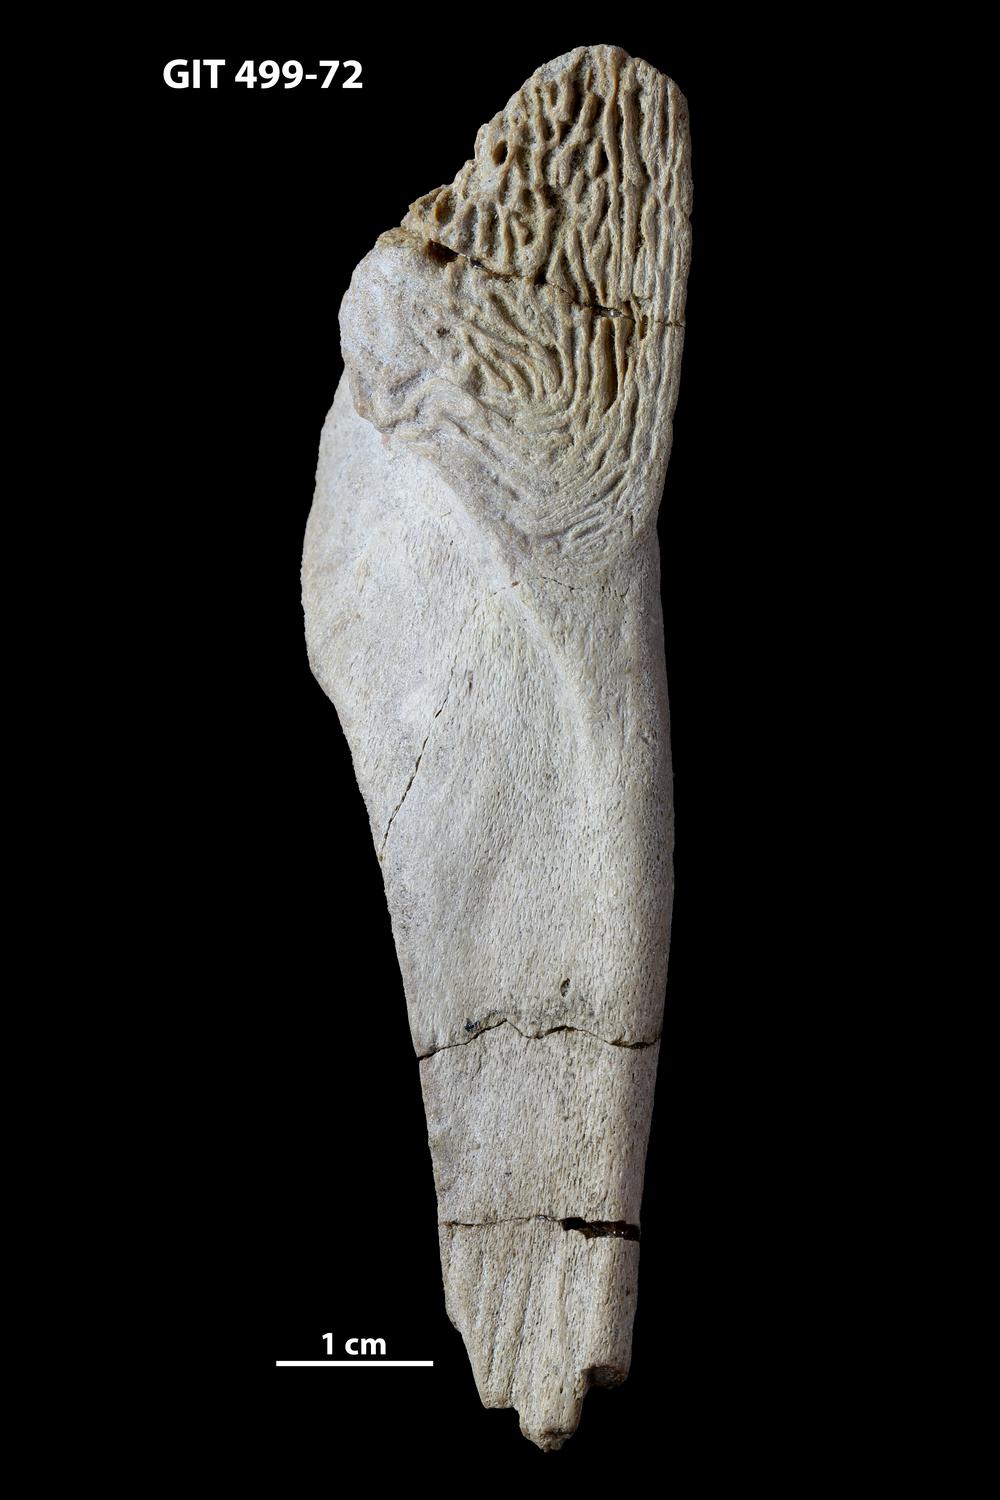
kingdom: Animalia
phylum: Chordata
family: Holoptychiidae
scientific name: Holoptychiidae
